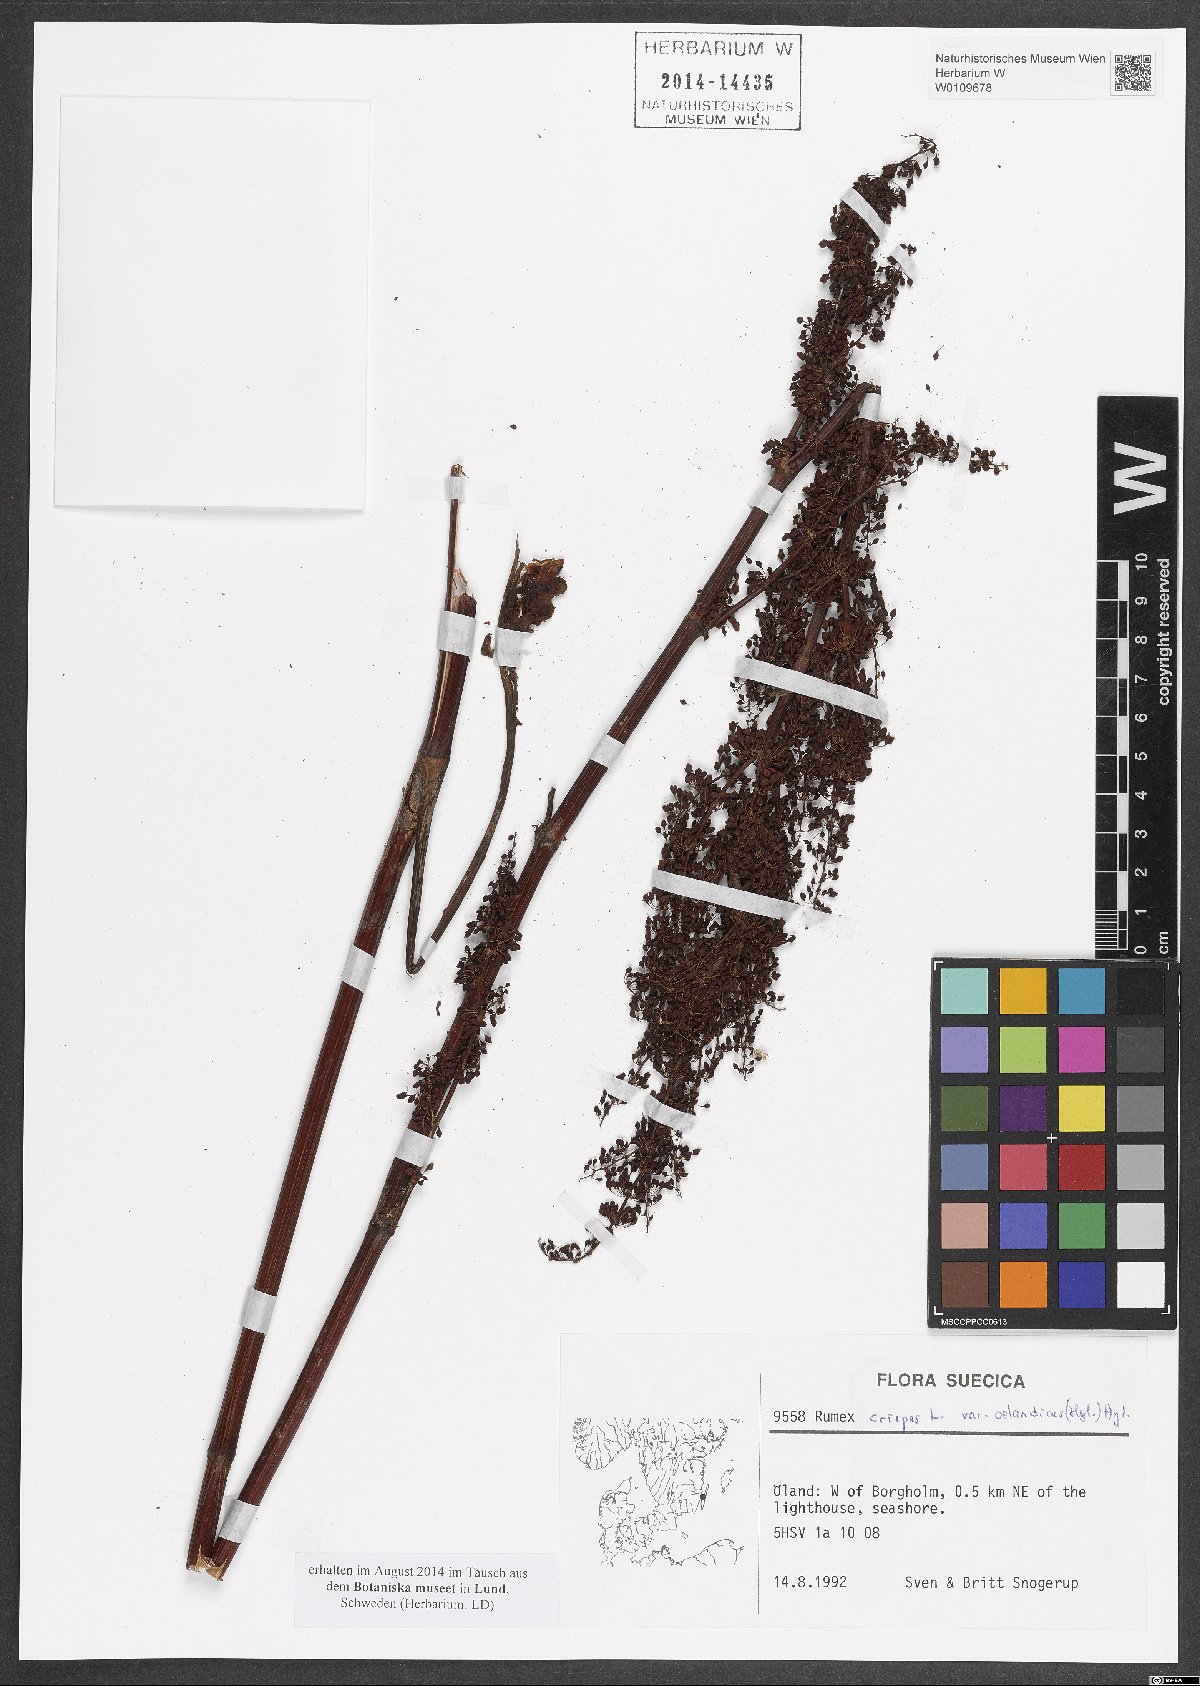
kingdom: Plantae
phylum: Tracheophyta
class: Magnoliopsida
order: Caryophyllales
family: Polygonaceae
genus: Rumex
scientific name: Rumex crispus
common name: Curled dock
